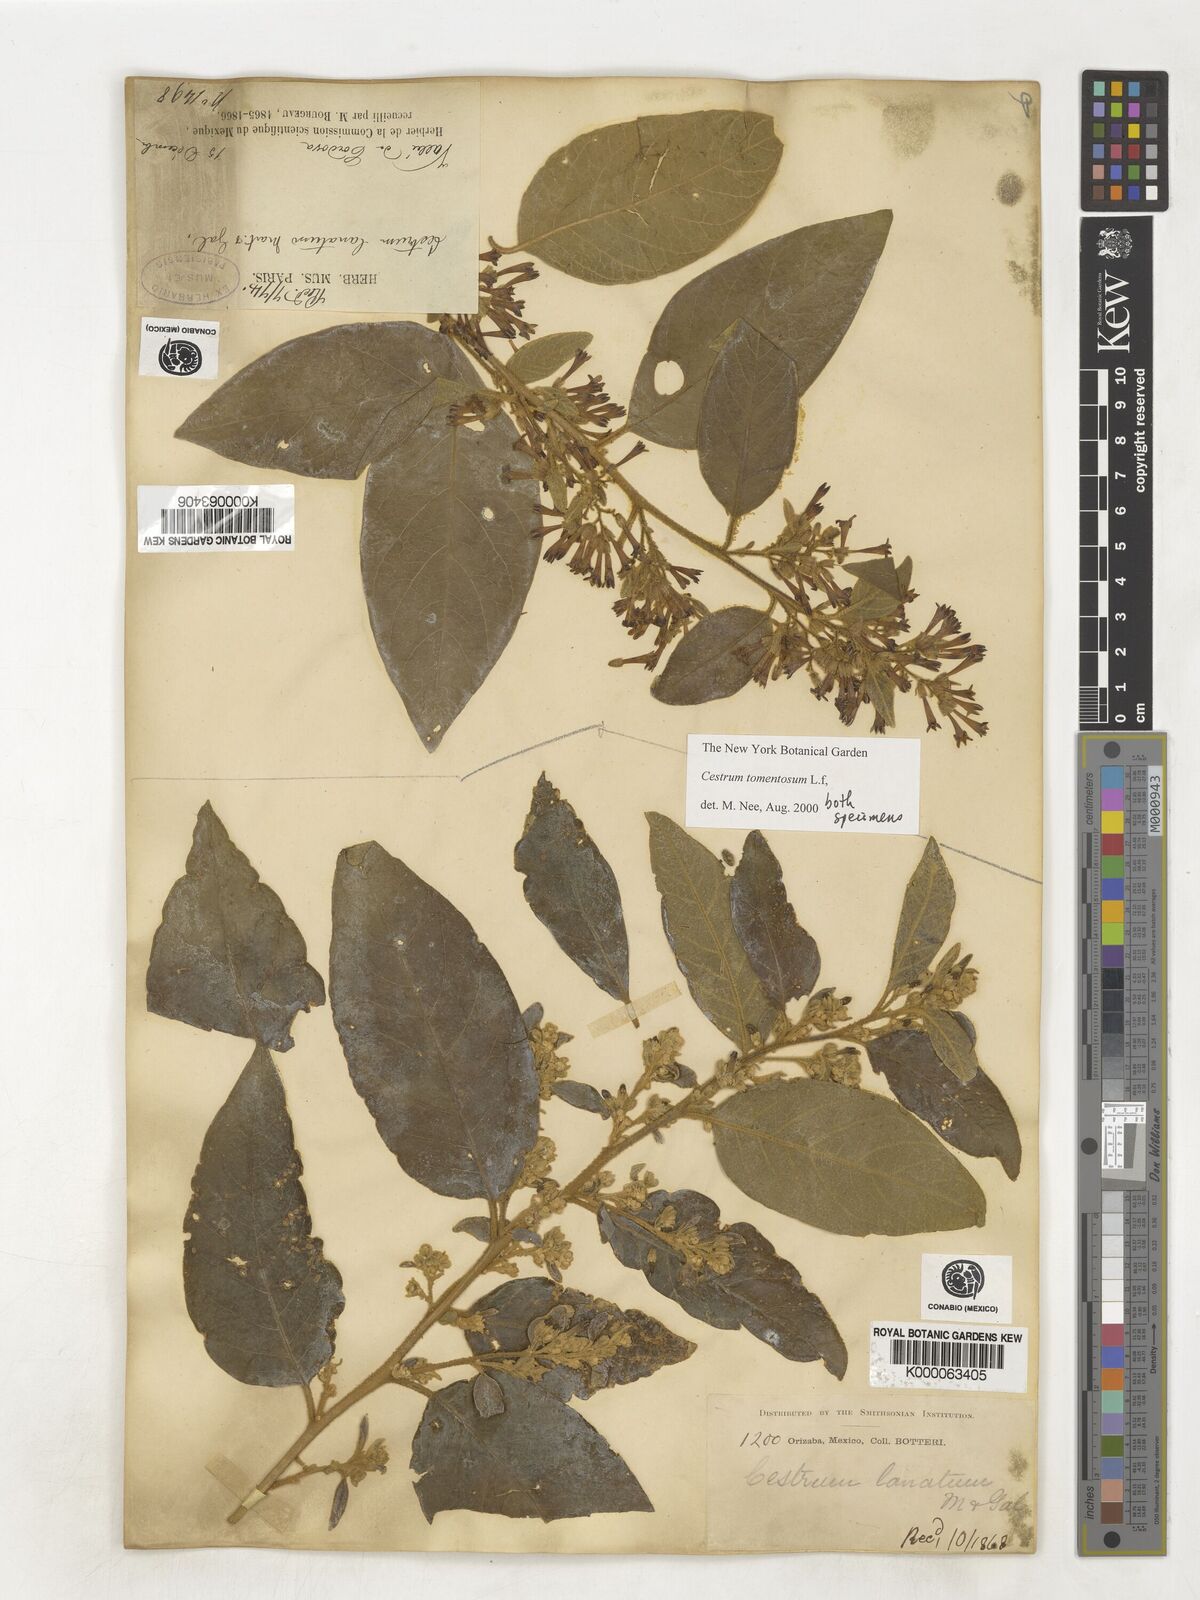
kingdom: Plantae
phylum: Tracheophyta
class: Magnoliopsida
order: Solanales
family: Solanaceae
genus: Cestrum
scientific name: Cestrum tomentosum
